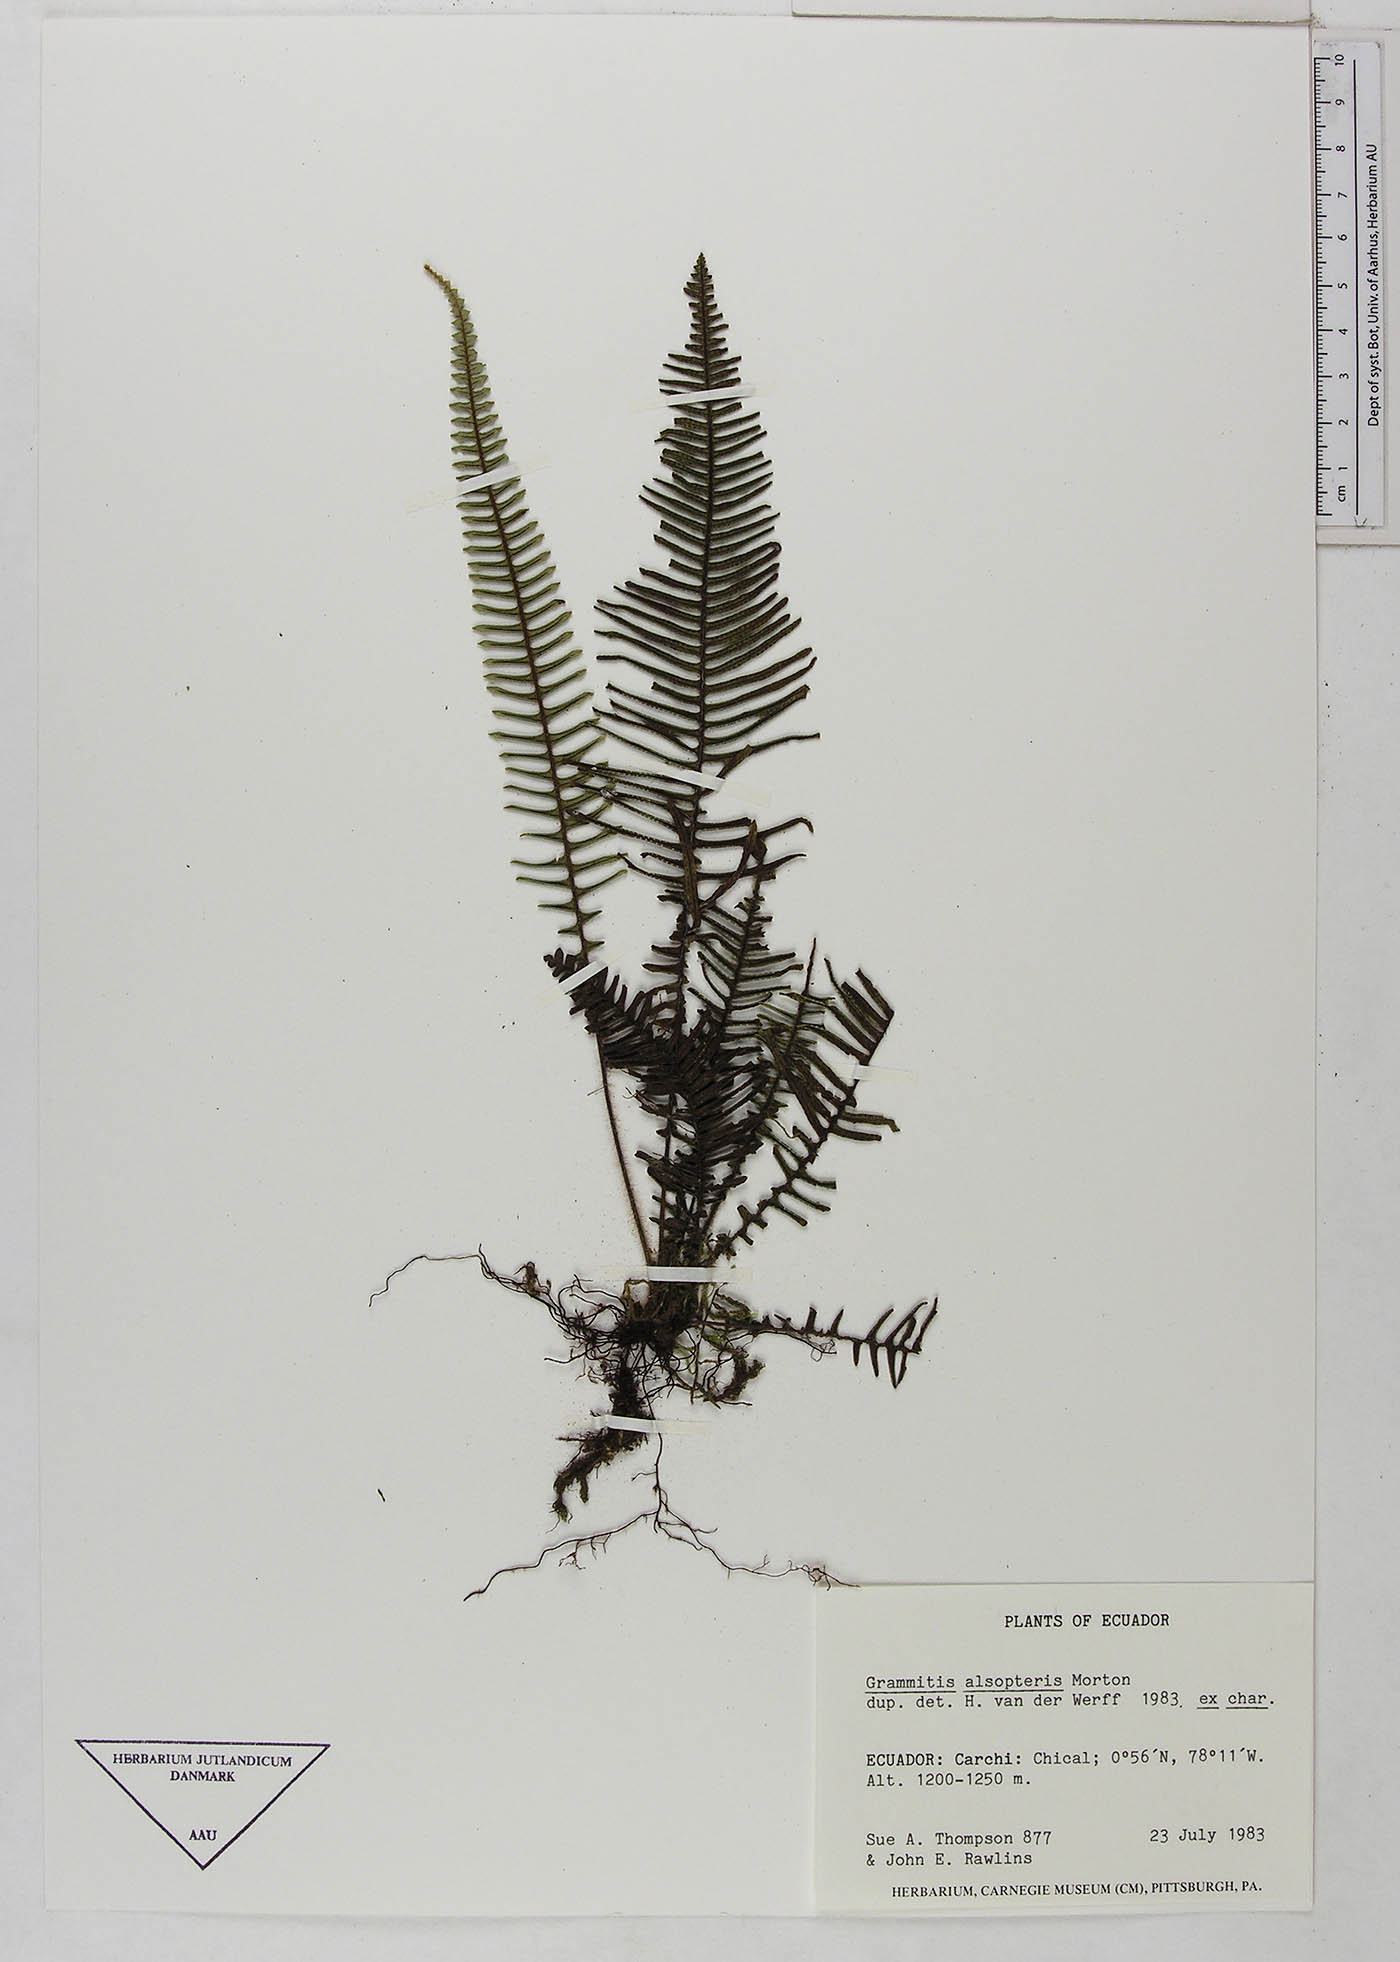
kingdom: Plantae
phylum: Tracheophyta
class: Polypodiopsida
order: Polypodiales
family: Polypodiaceae
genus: Mycopteris
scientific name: Mycopteris alsopteris
